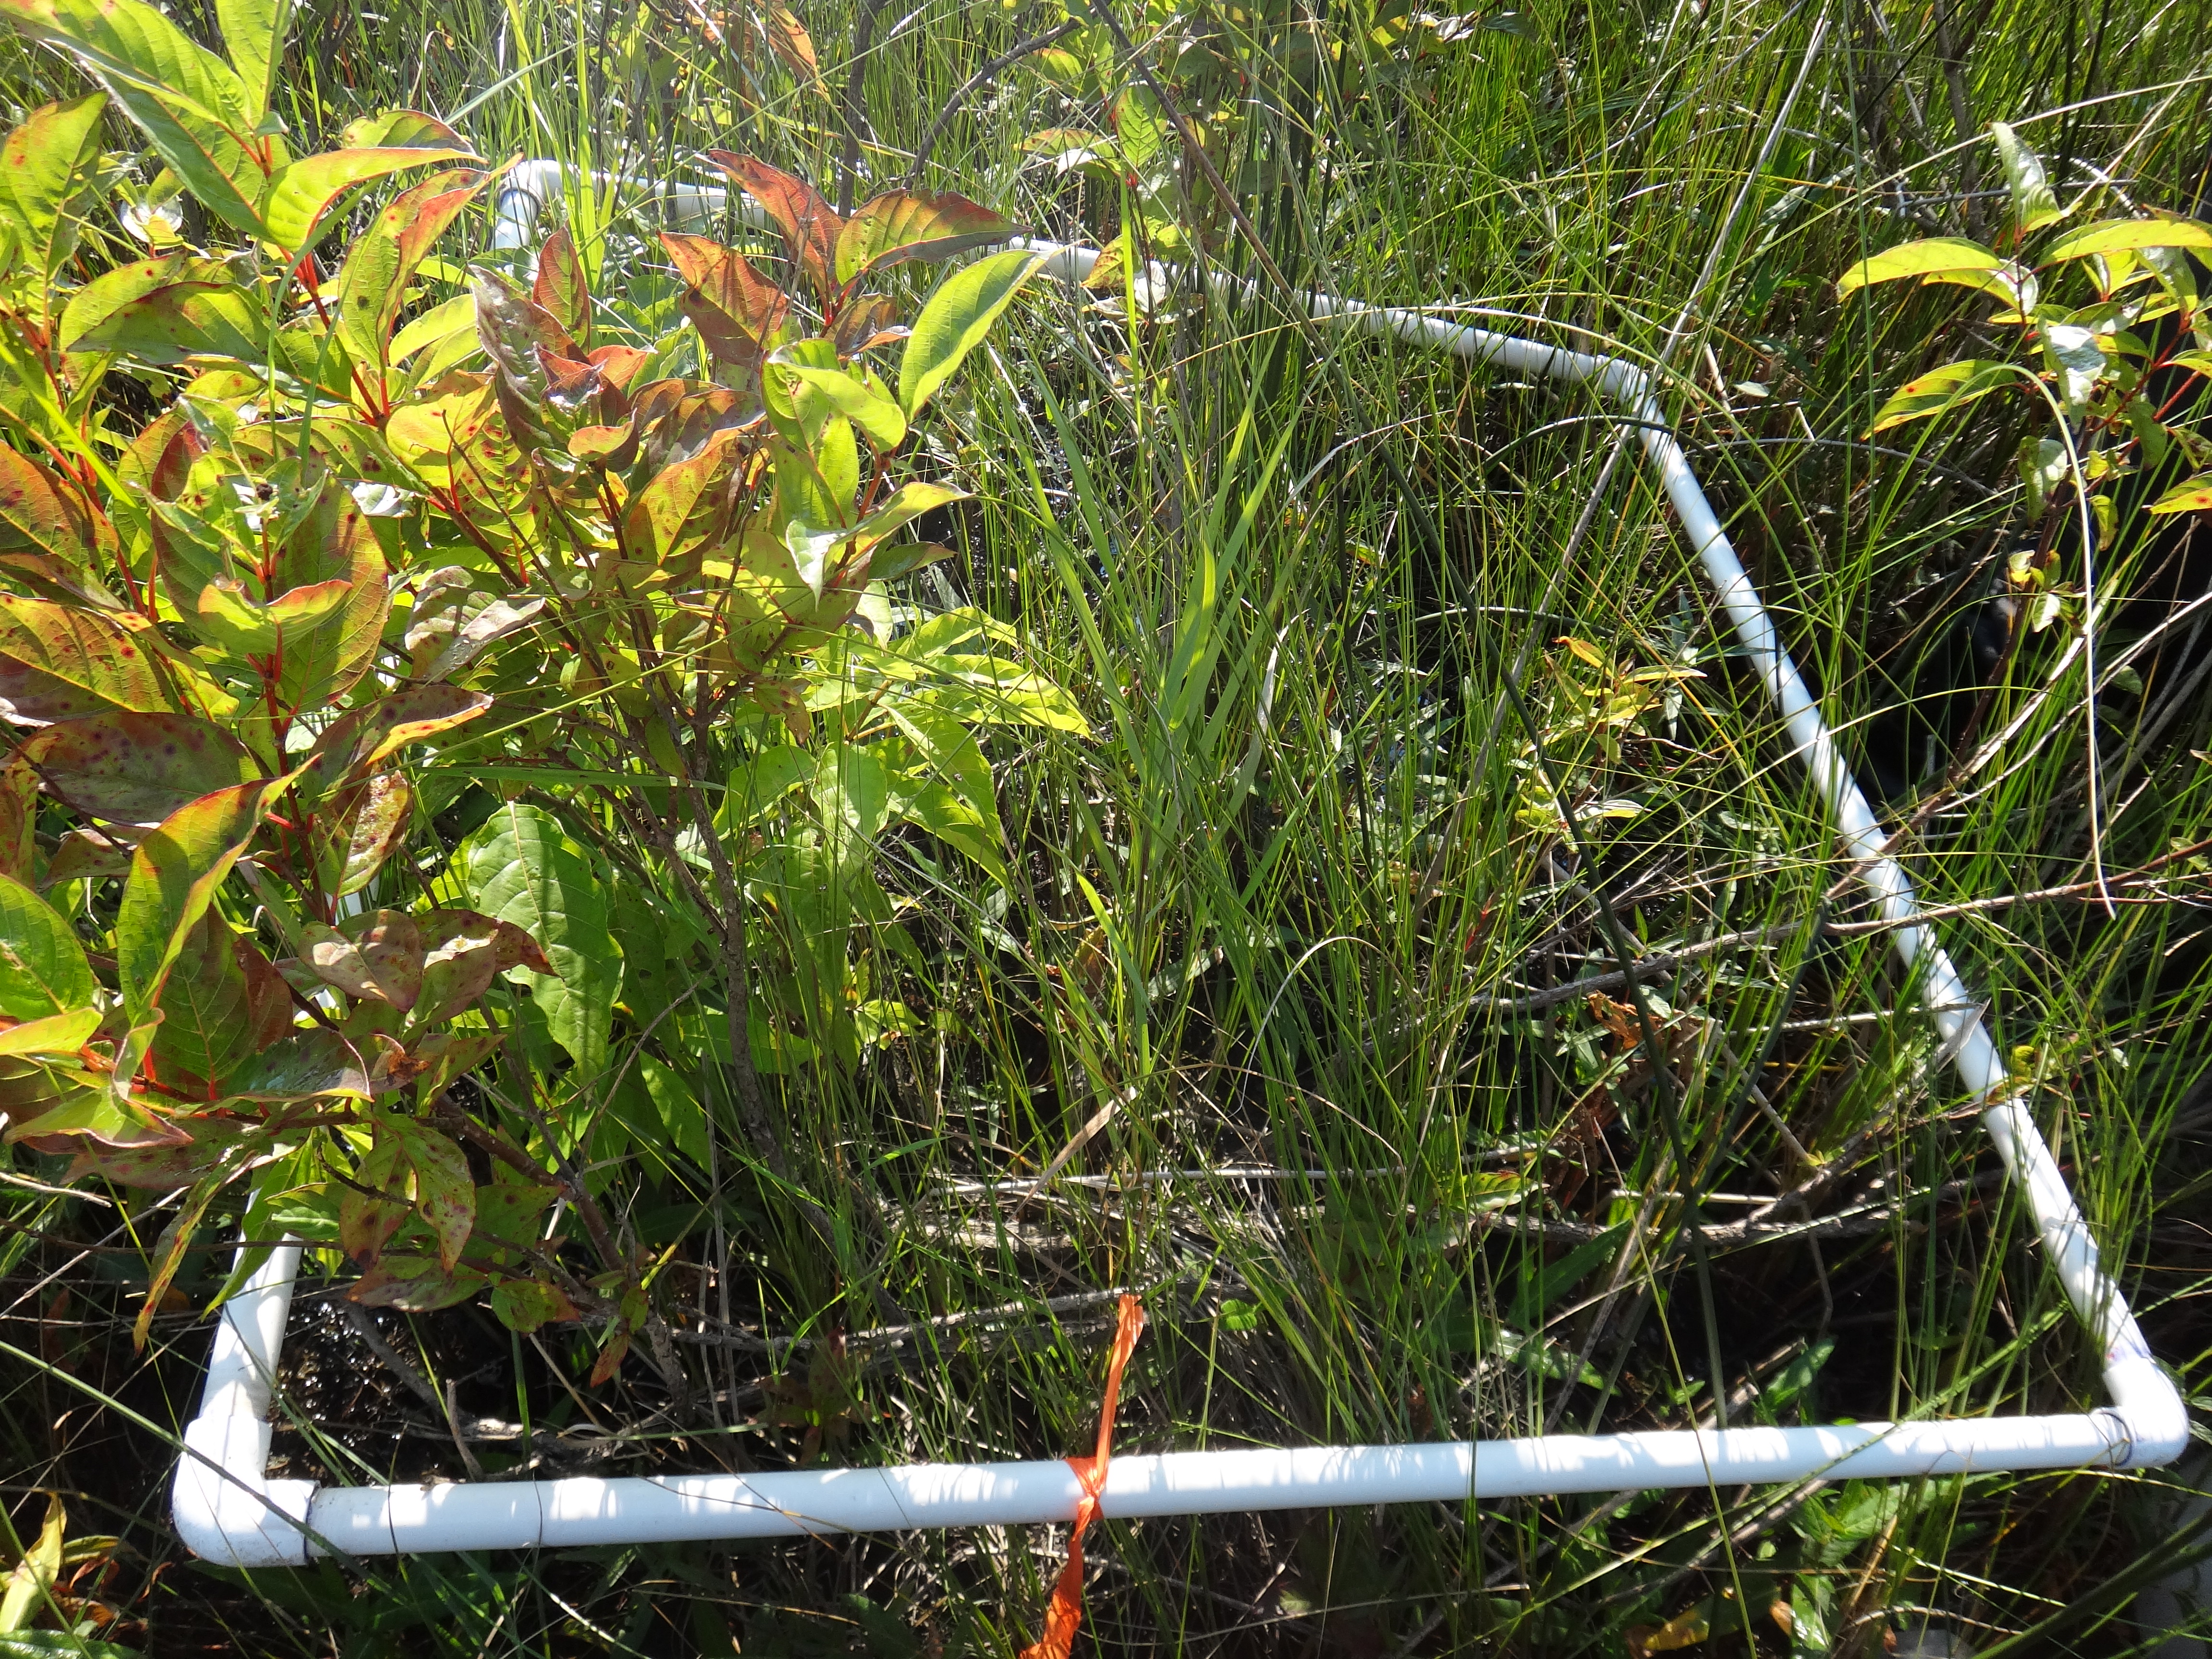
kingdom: Plantae
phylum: Tracheophyta
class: Magnoliopsida
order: Caryophyllales
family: Polygonaceae
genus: Persicaria
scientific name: Persicaria amphibia
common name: Amphibious bistort
